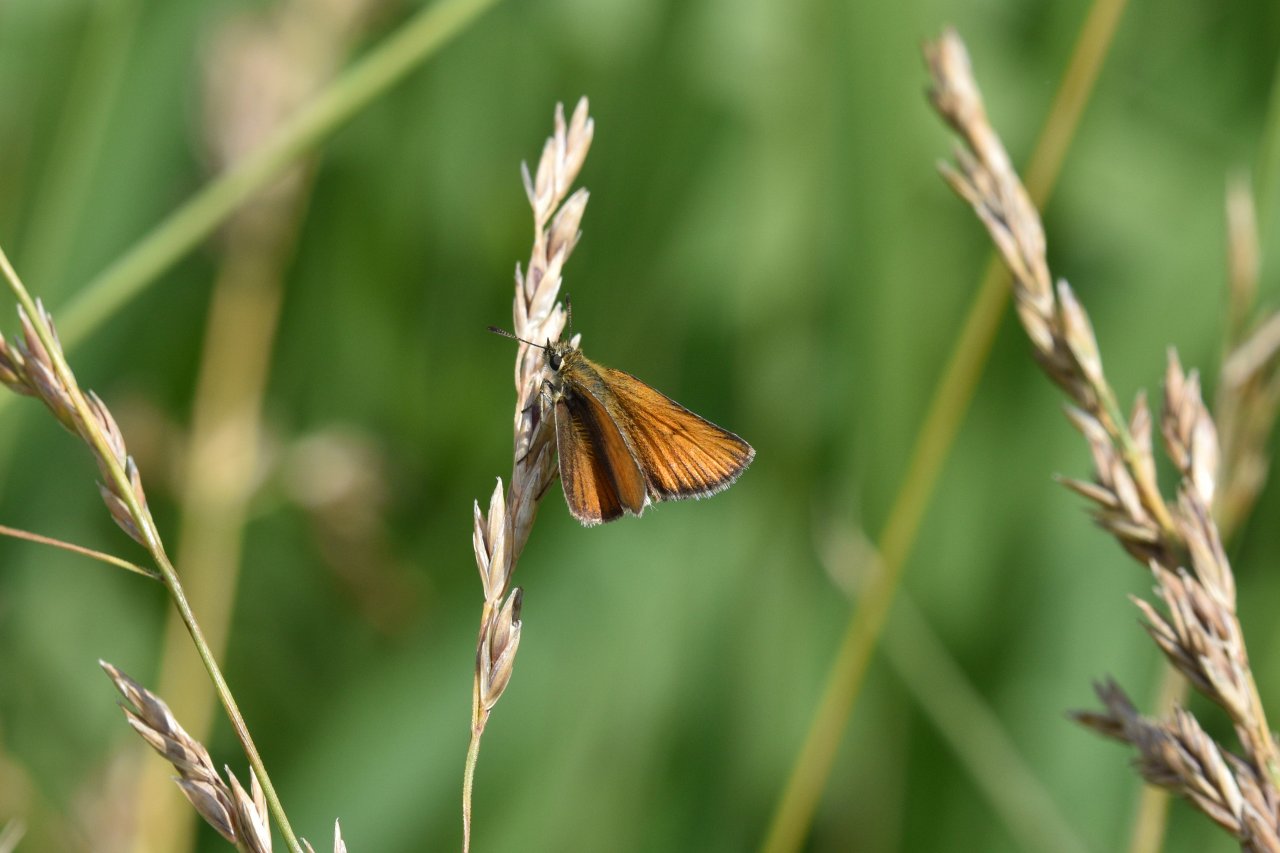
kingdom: Animalia
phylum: Arthropoda
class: Insecta
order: Lepidoptera
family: Hesperiidae
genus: Thymelicus
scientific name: Thymelicus lineola
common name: European Skipper
